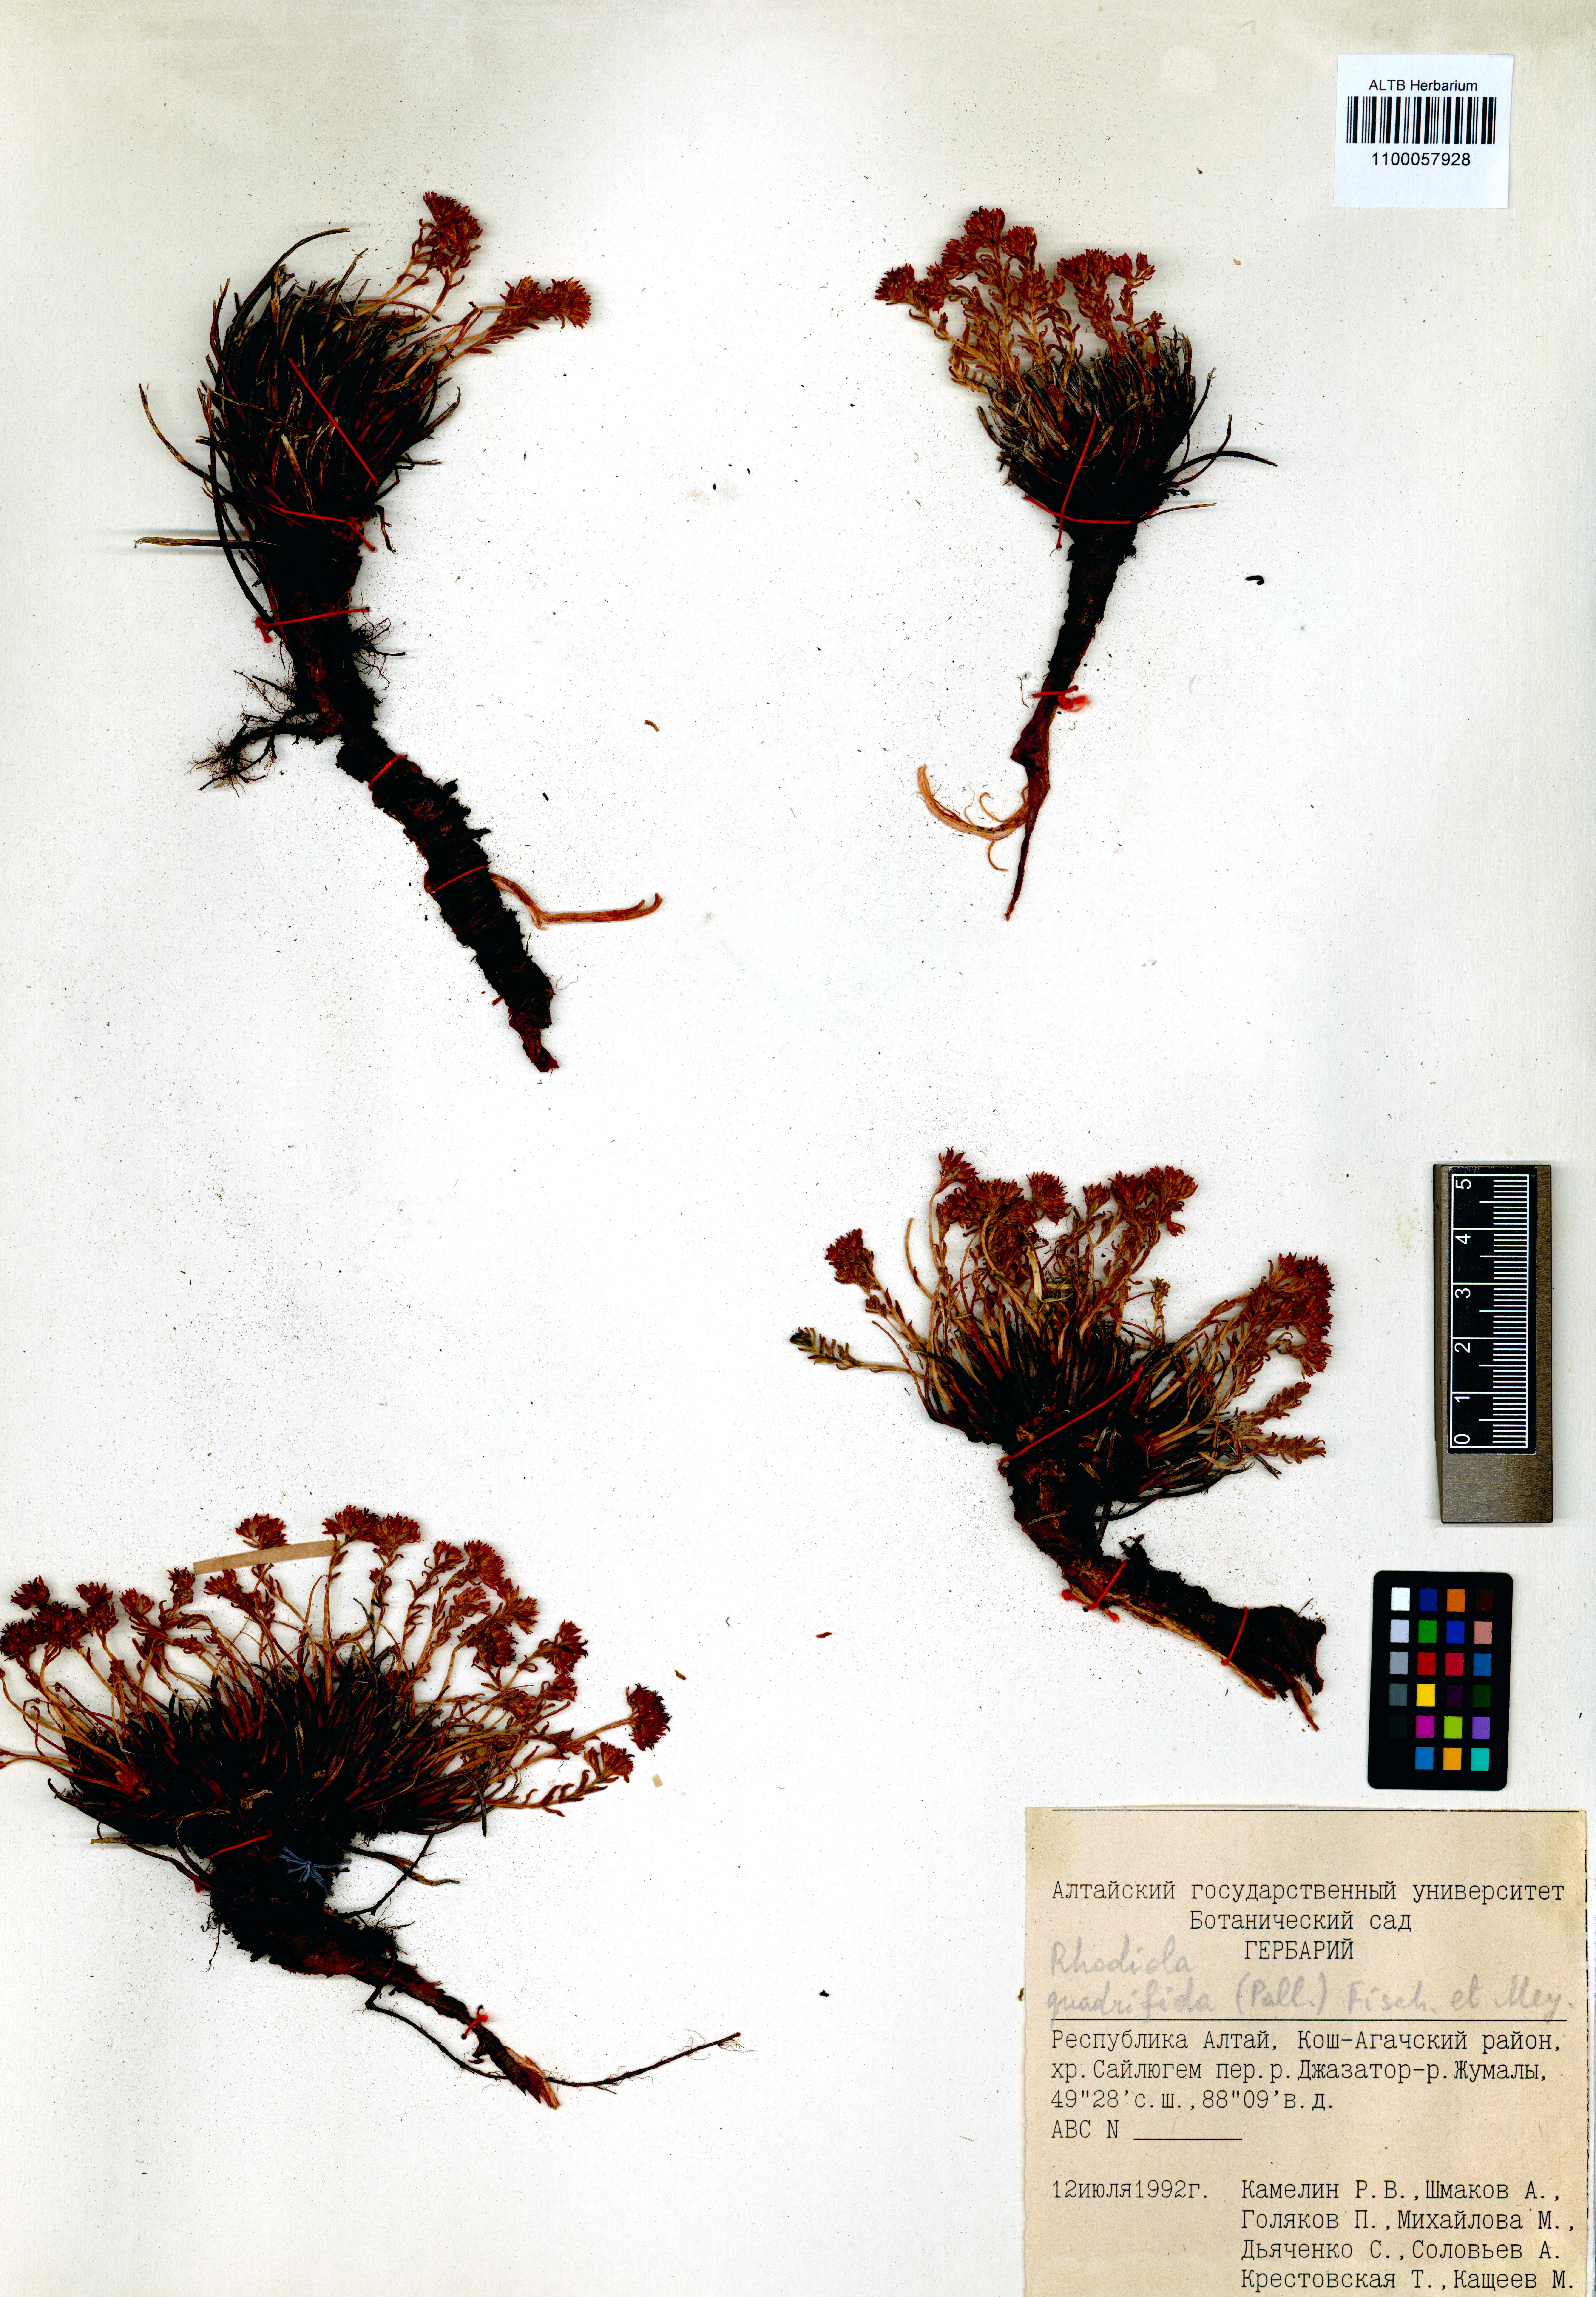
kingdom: Plantae
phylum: Tracheophyta
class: Magnoliopsida
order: Saxifragales
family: Crassulaceae
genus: Rhodiola
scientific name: Rhodiola quadrifida
